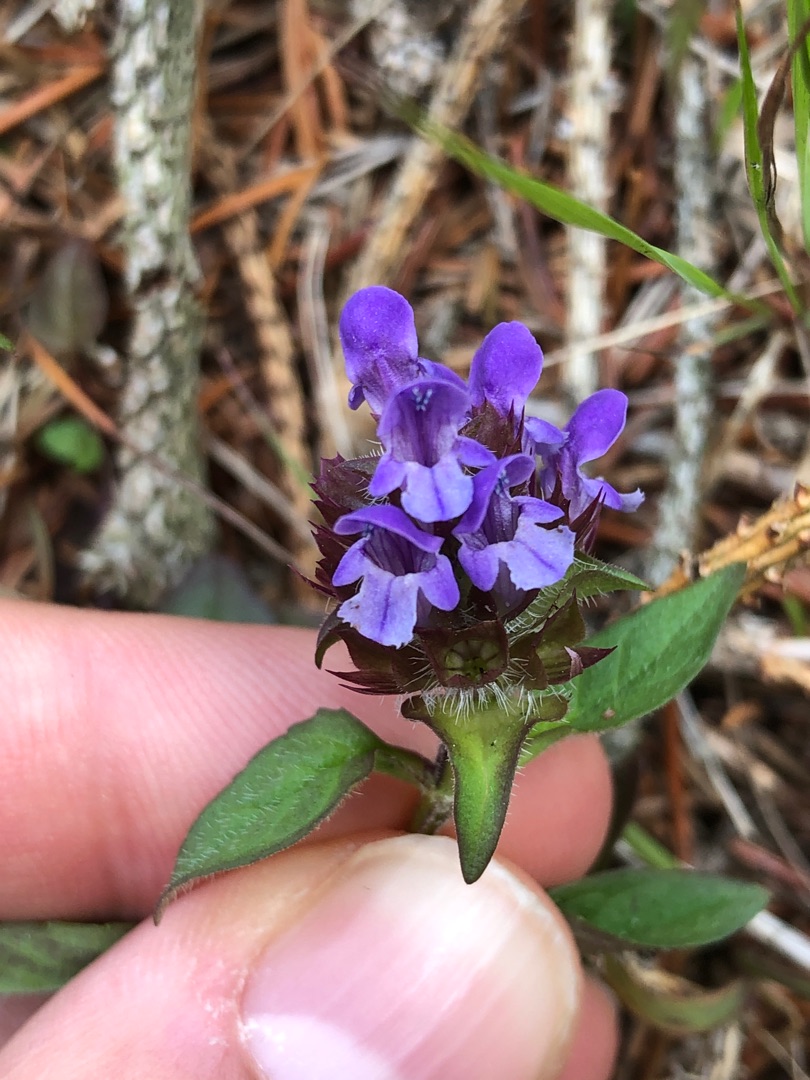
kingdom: Plantae
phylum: Tracheophyta
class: Magnoliopsida
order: Lamiales
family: Lamiaceae
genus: Prunella
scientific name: Prunella vulgaris
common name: Almindelig brunelle
